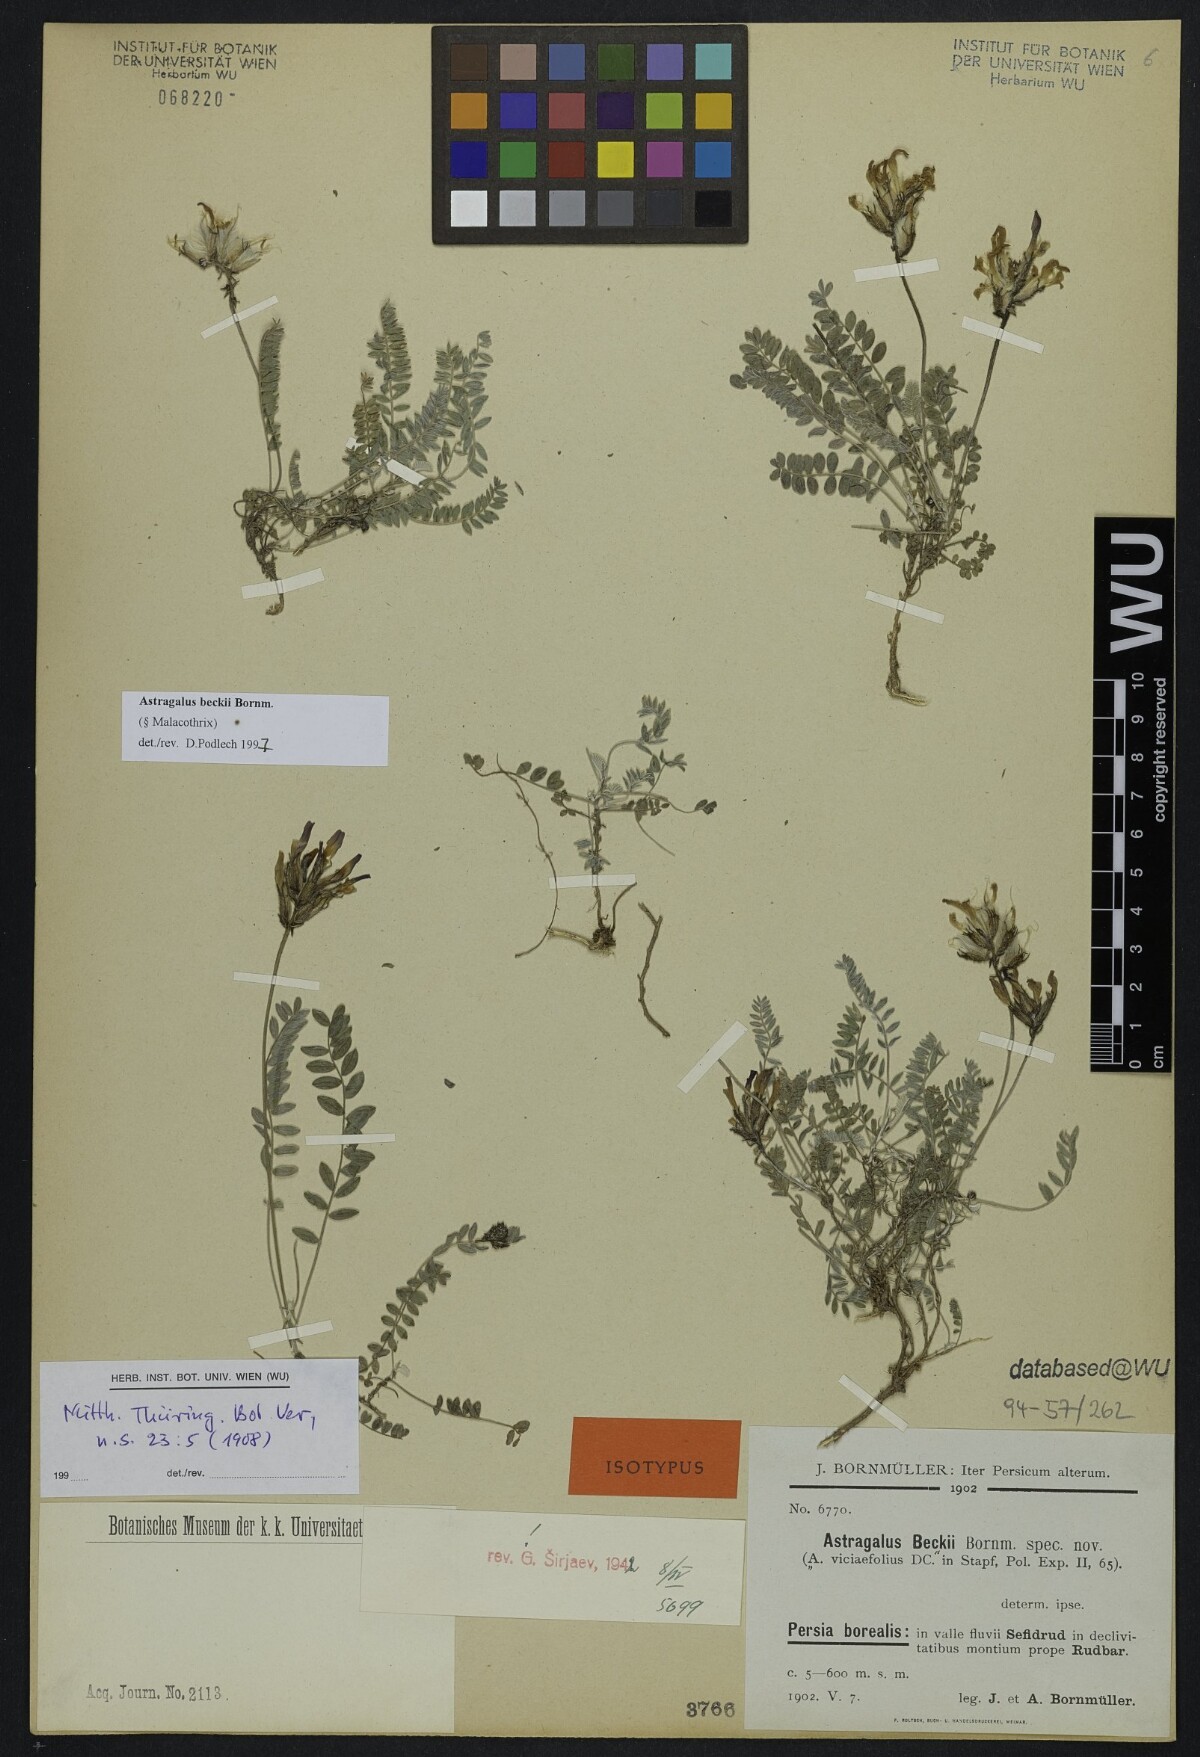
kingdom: Plantae
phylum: Tracheophyta
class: Magnoliopsida
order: Fabales
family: Fabaceae
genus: Astragalus
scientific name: Astragalus beckii
